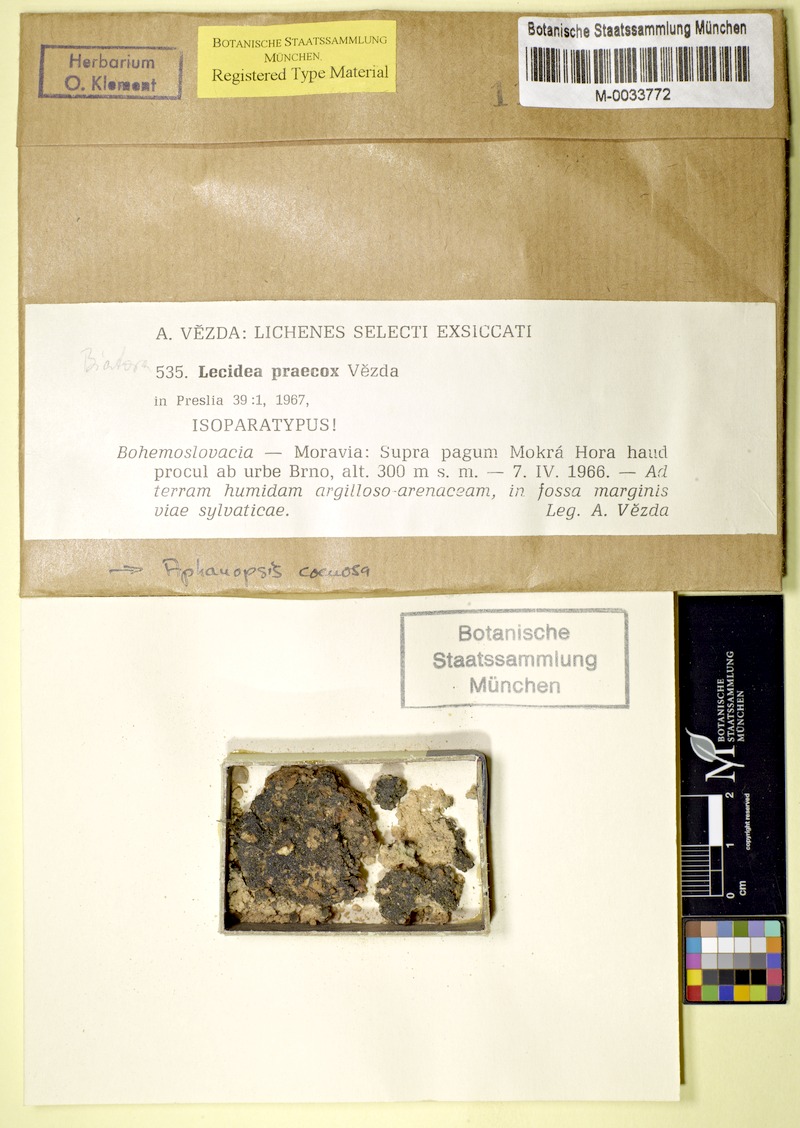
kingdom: Fungi
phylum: Ascomycota
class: Lecanoromycetes
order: Lecanorales
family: Aphanopsidaceae
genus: Aphanopsis
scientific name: Aphanopsis coenosa
